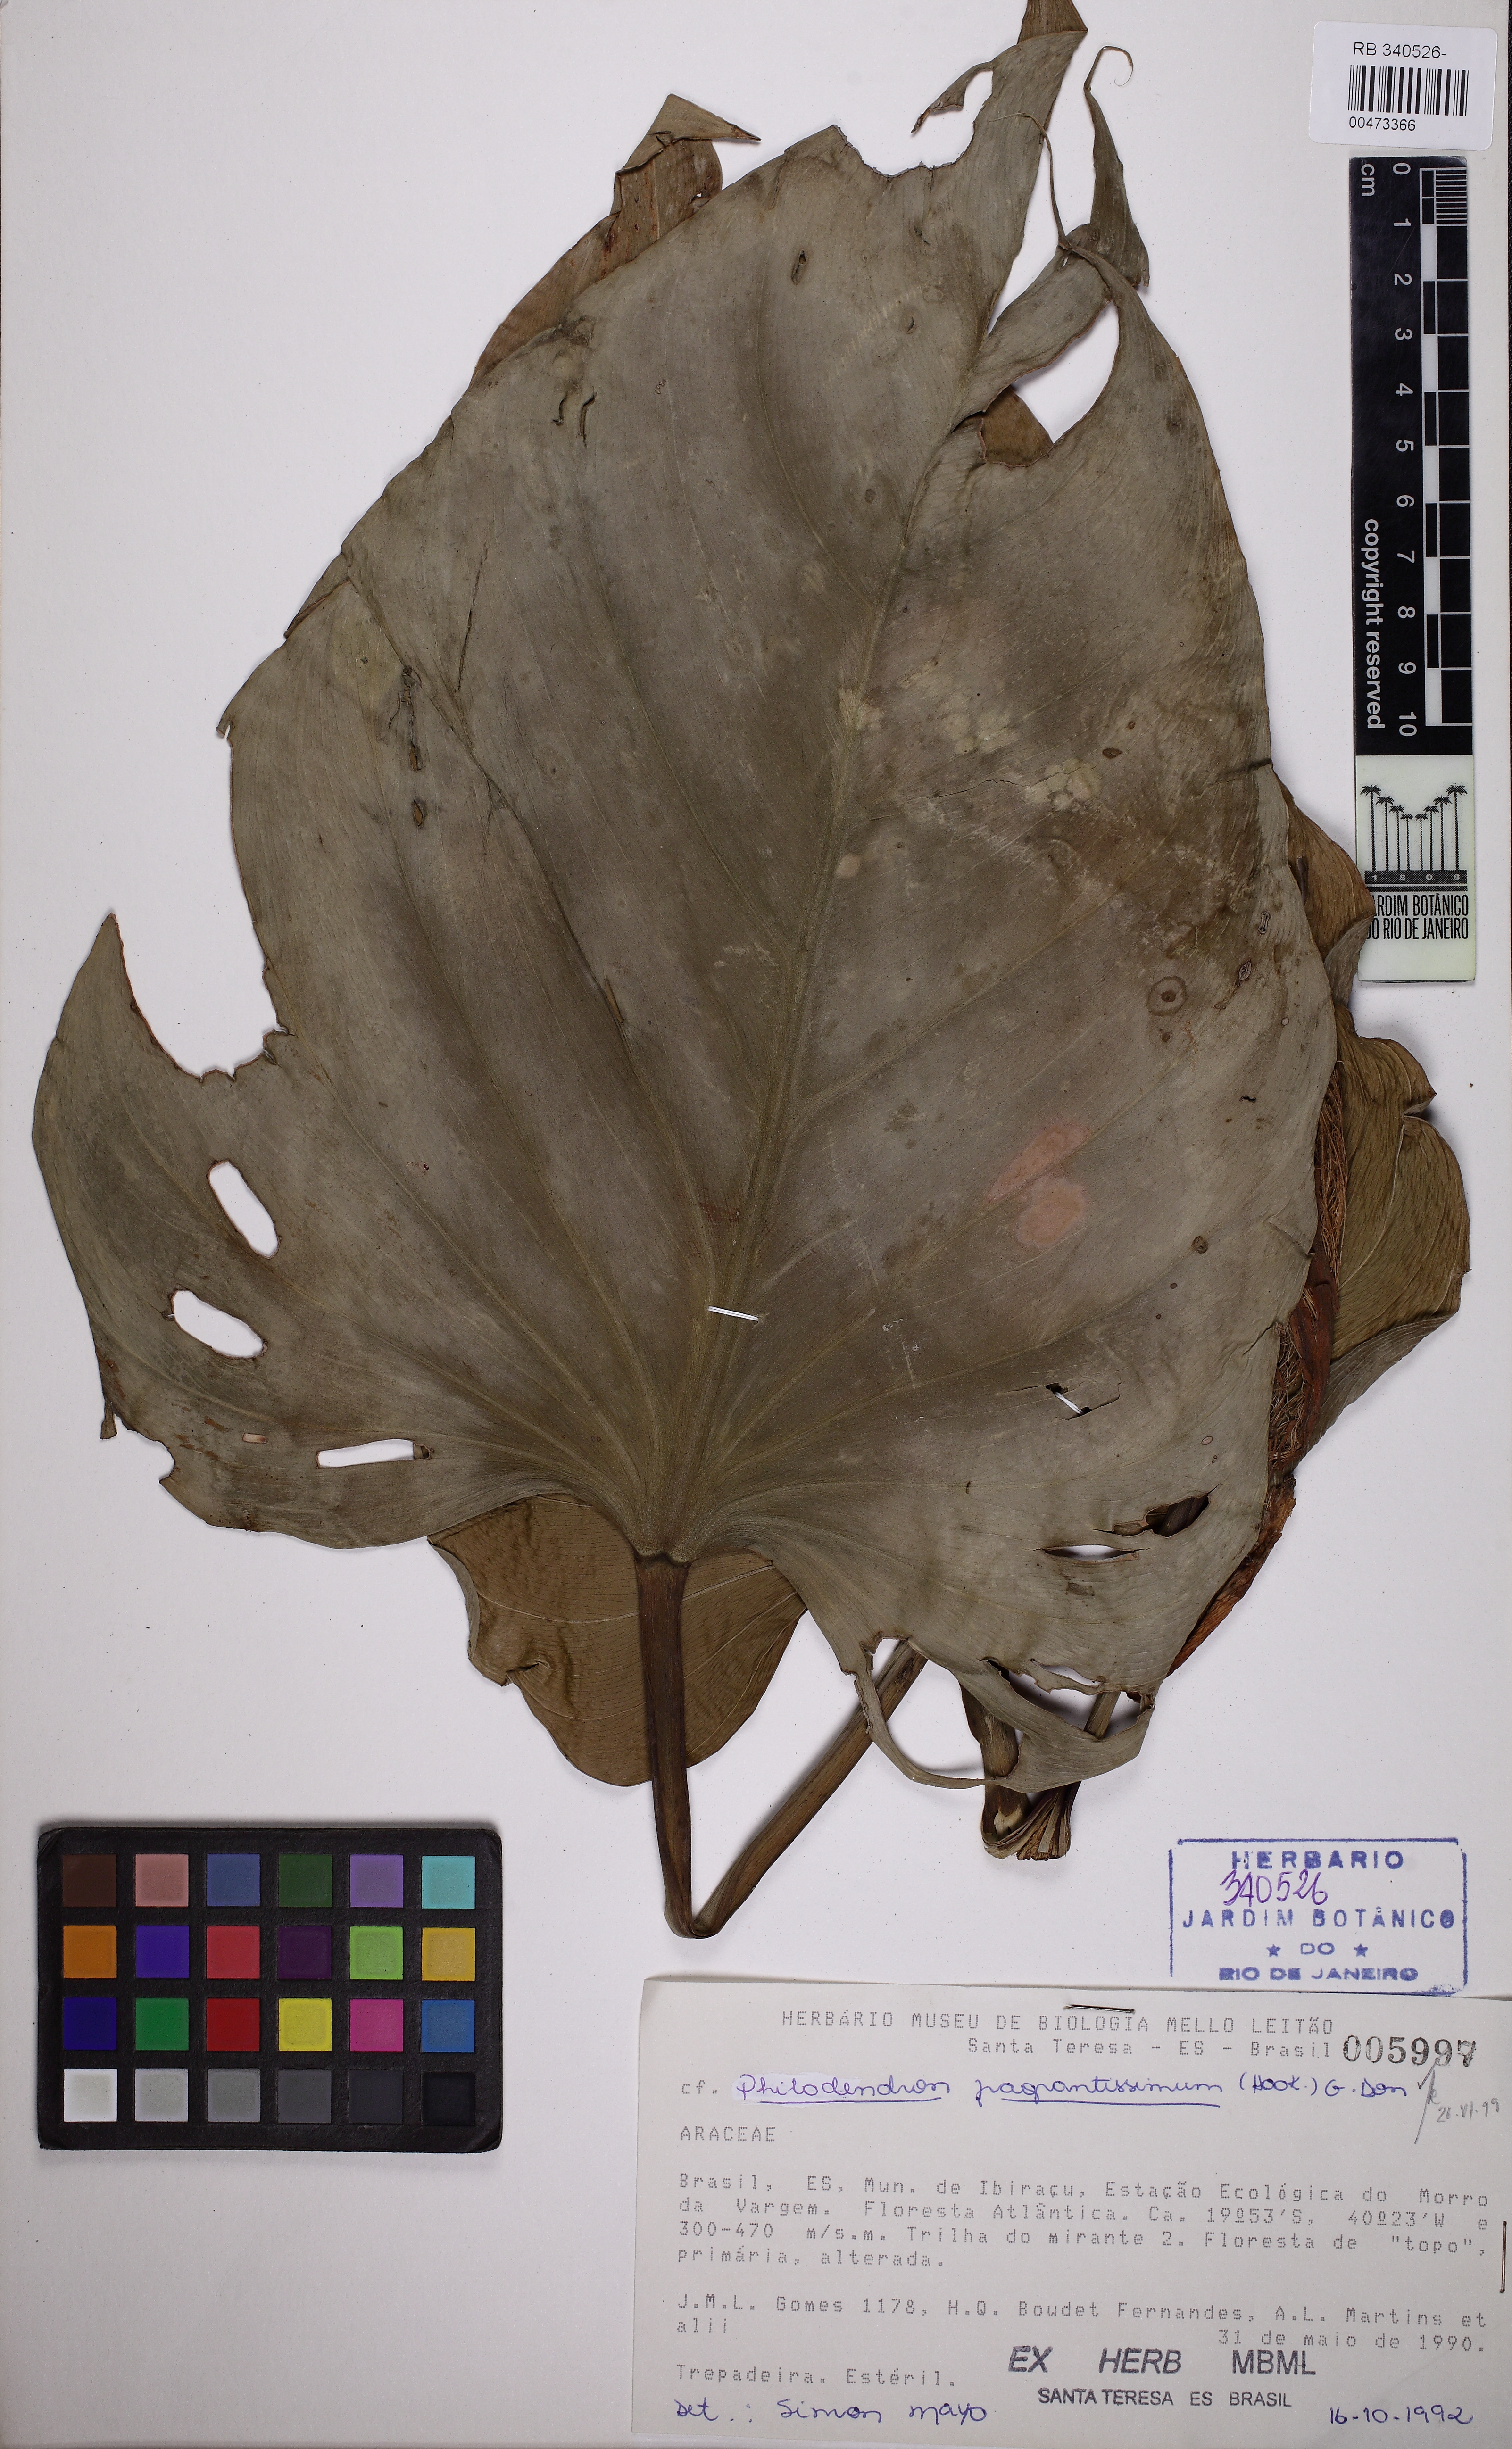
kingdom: Plantae
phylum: Tracheophyta
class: Liliopsida
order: Alismatales
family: Araceae
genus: Philodendron
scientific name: Philodendron fragrantissimum
